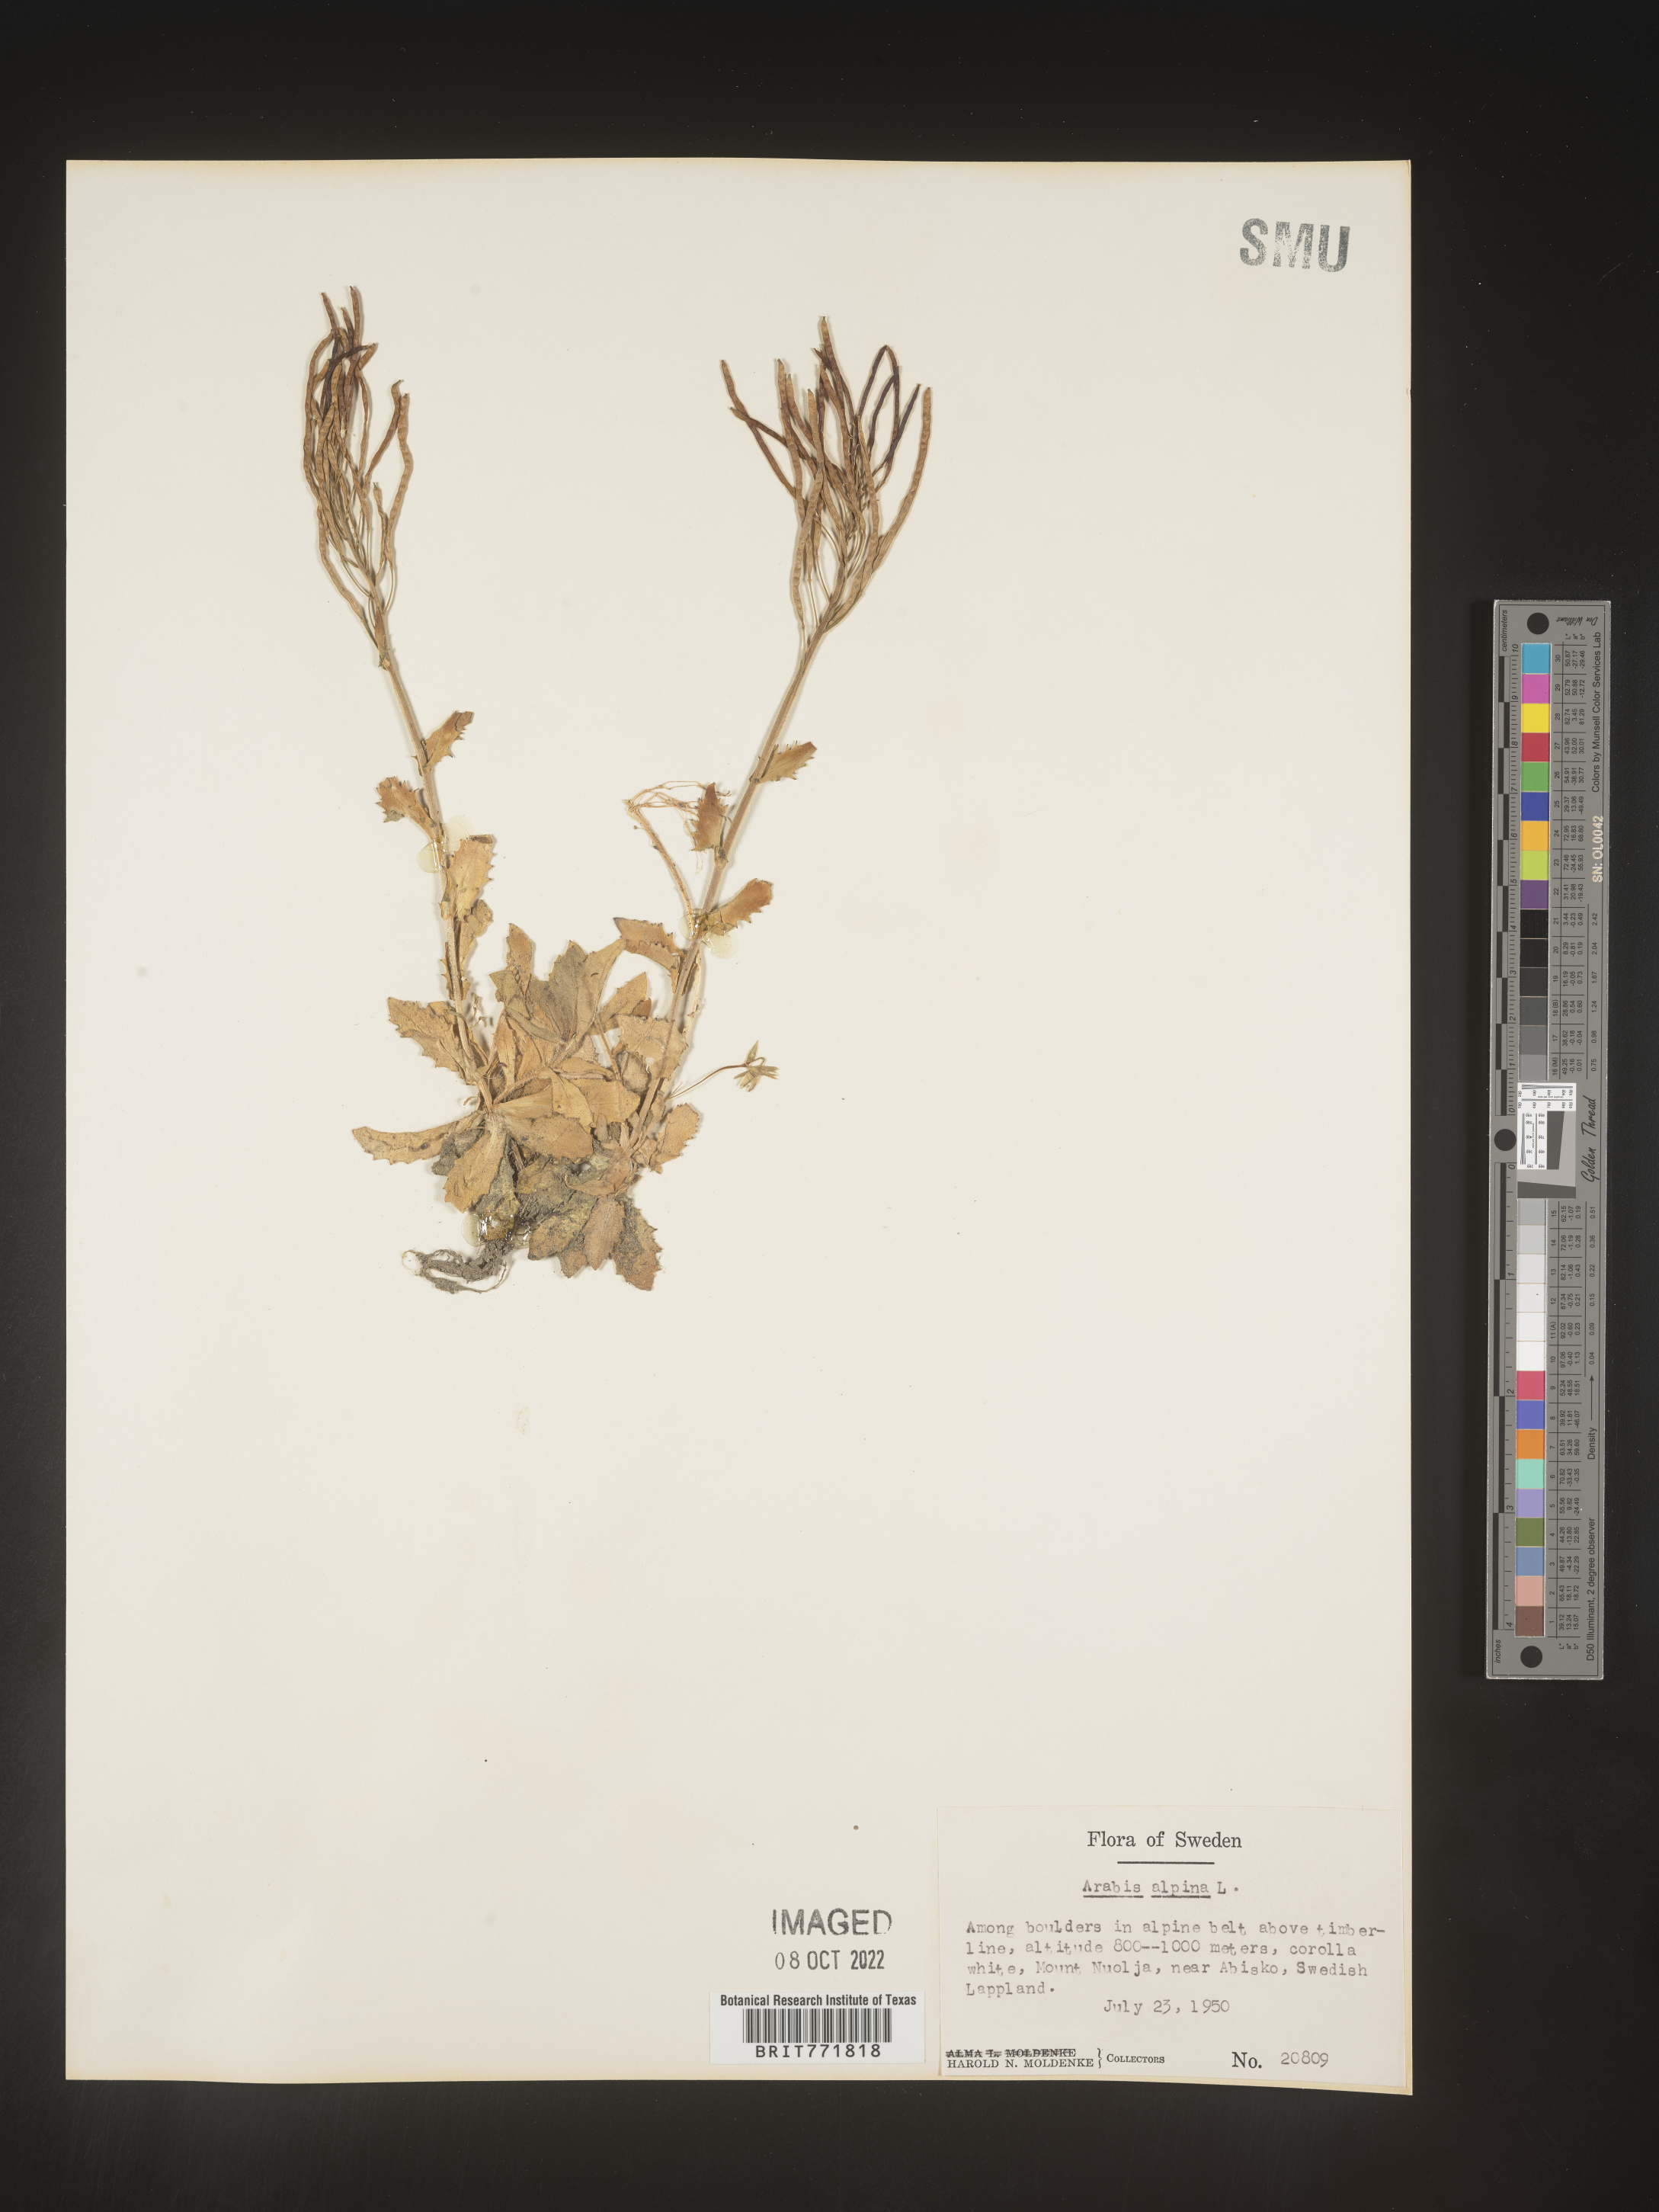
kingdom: Plantae
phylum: Tracheophyta
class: Magnoliopsida
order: Brassicales
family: Brassicaceae
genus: Arabis
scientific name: Arabis
